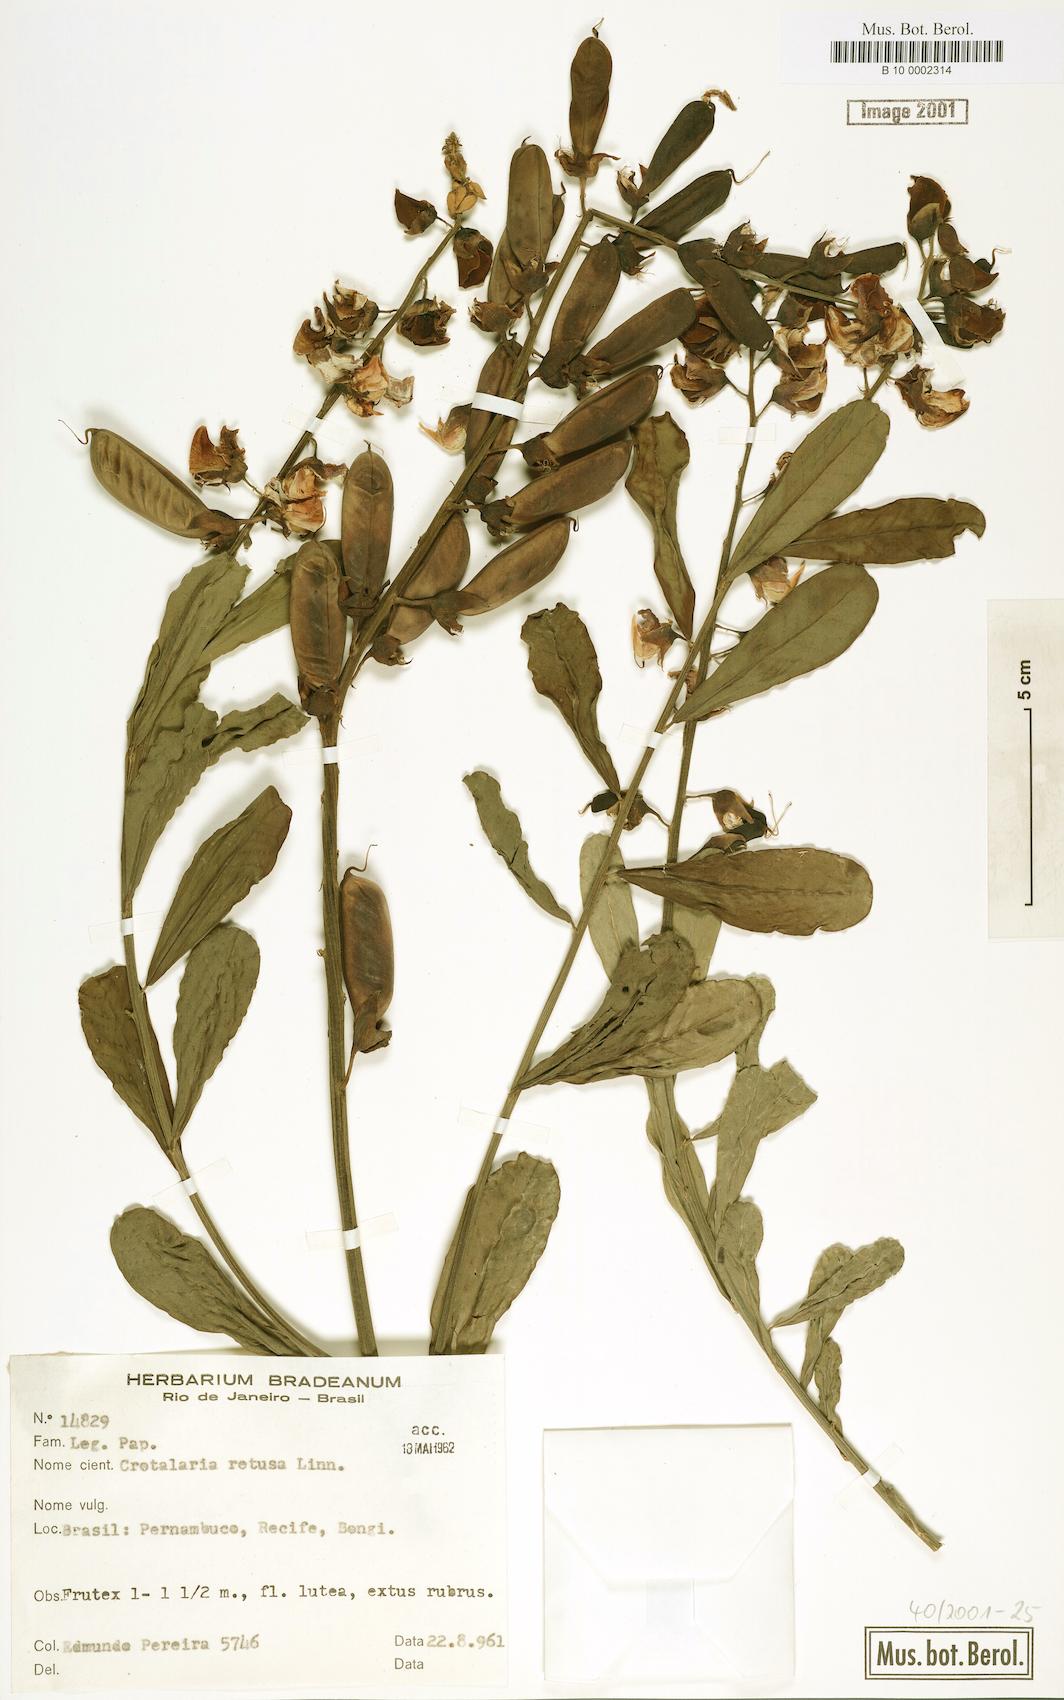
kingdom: Plantae
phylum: Tracheophyta
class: Magnoliopsida
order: Fabales
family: Fabaceae
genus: Crotalaria
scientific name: Crotalaria retusa
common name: Rattleweed
